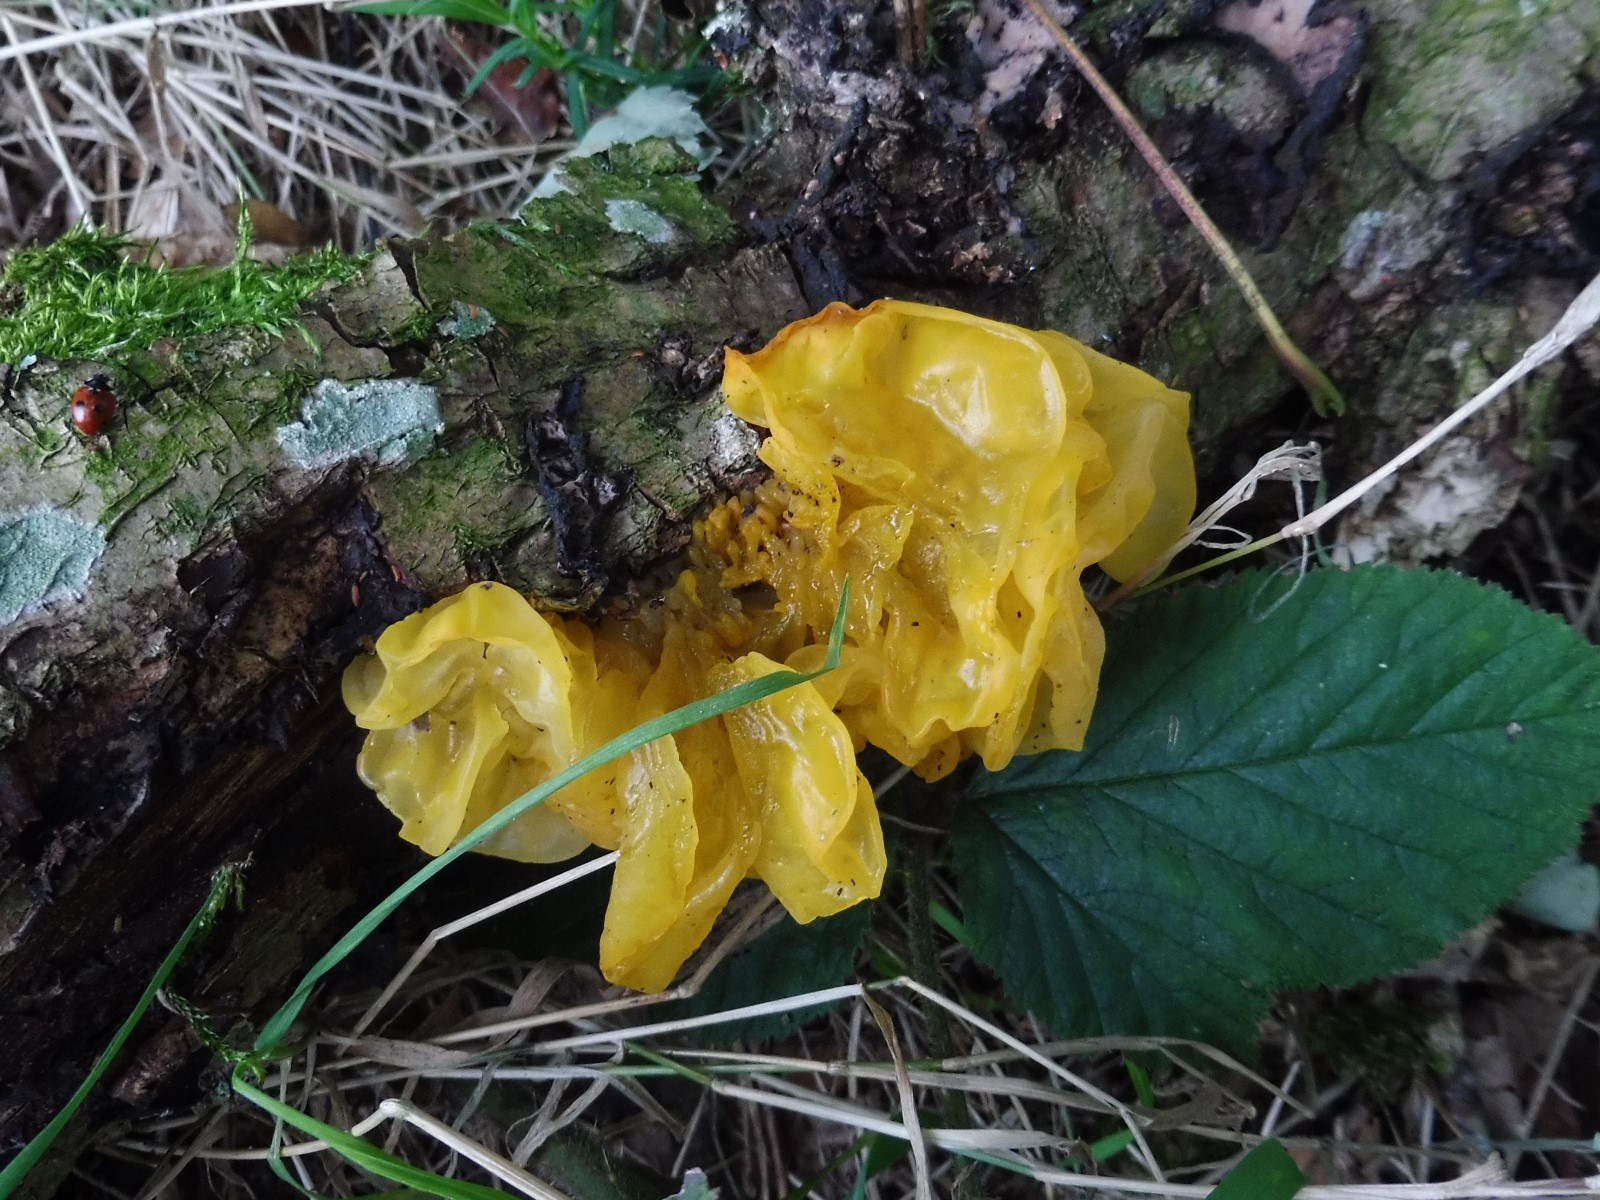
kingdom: Fungi
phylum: Basidiomycota
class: Tremellomycetes
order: Tremellales
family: Tremellaceae
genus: Tremella
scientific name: Tremella mesenterica
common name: gul bævresvamp
